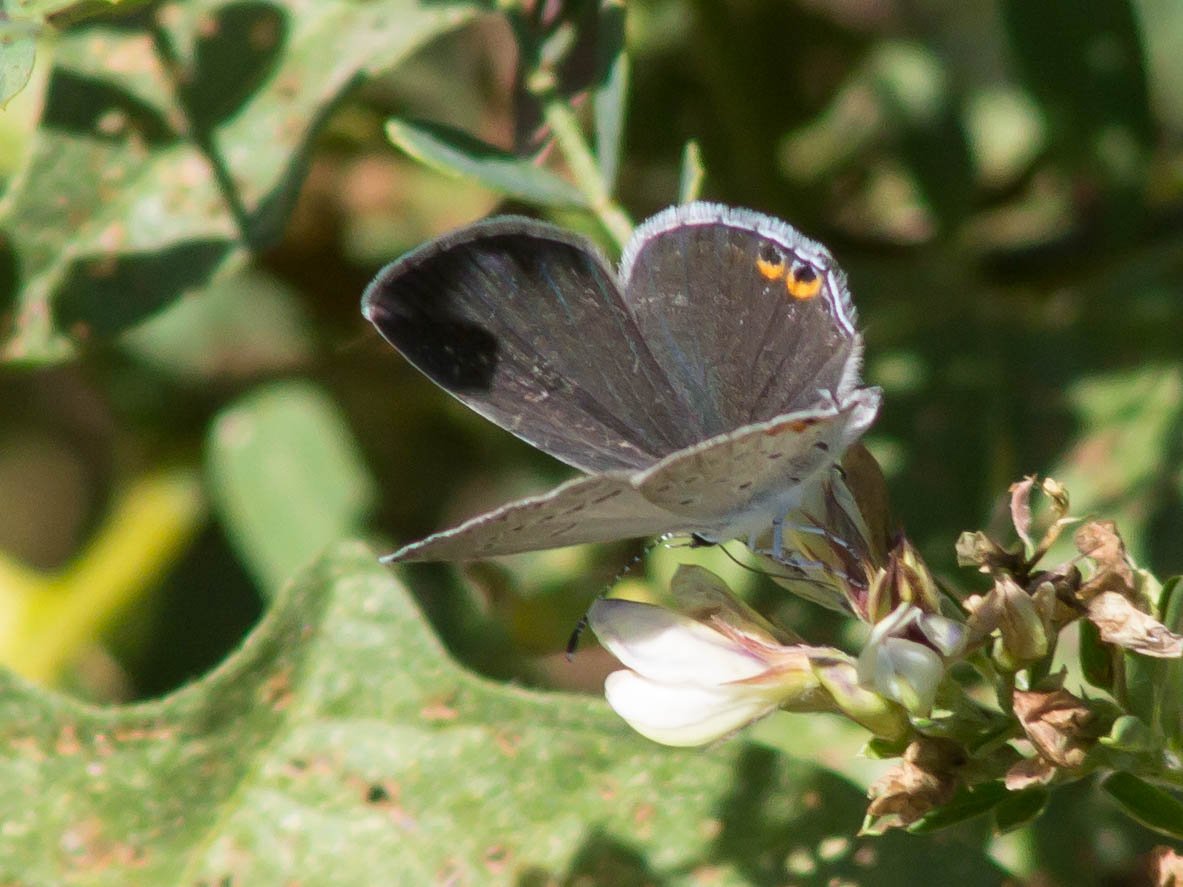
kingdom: Animalia
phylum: Arthropoda
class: Insecta
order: Lepidoptera
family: Lycaenidae
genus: Elkalyce
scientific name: Elkalyce comyntas
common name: Eastern Tailed-Blue
